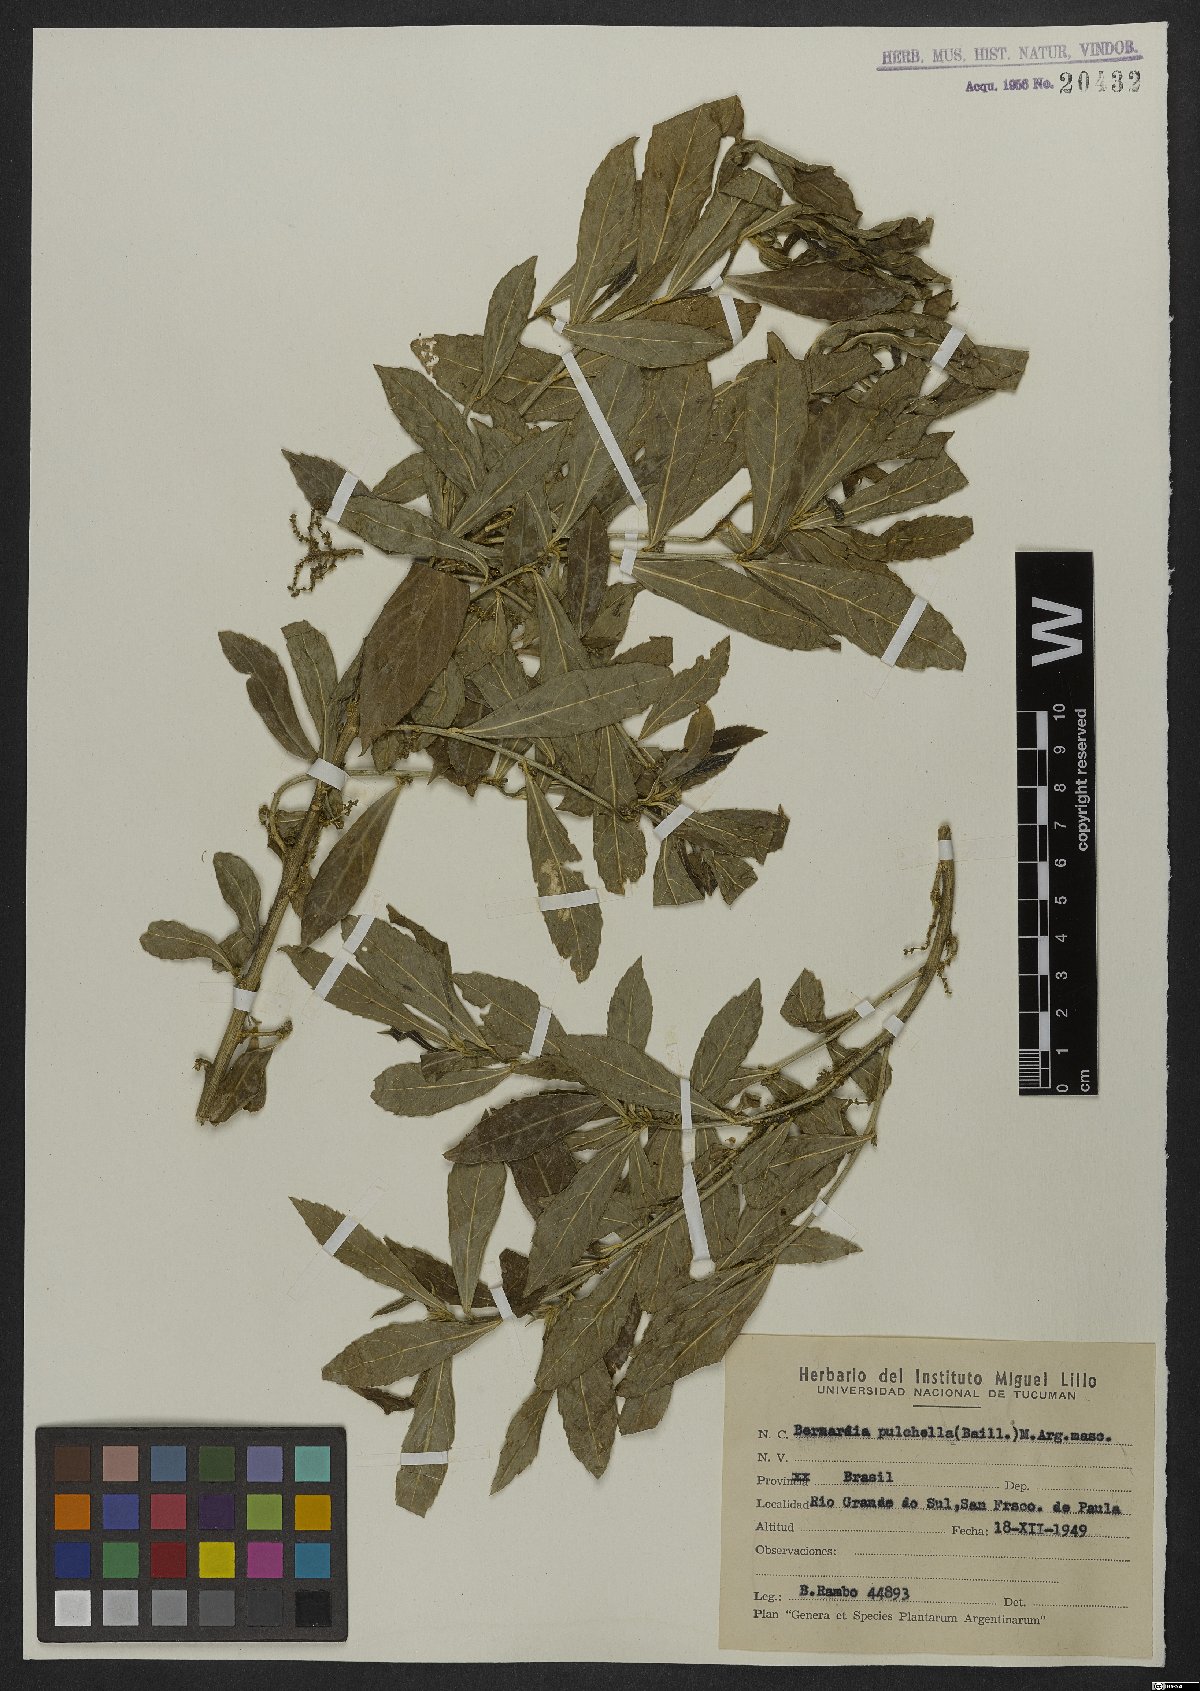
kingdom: Plantae
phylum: Tracheophyta
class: Magnoliopsida
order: Malpighiales
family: Euphorbiaceae
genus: Bernardia
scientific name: Bernardia pulchella
